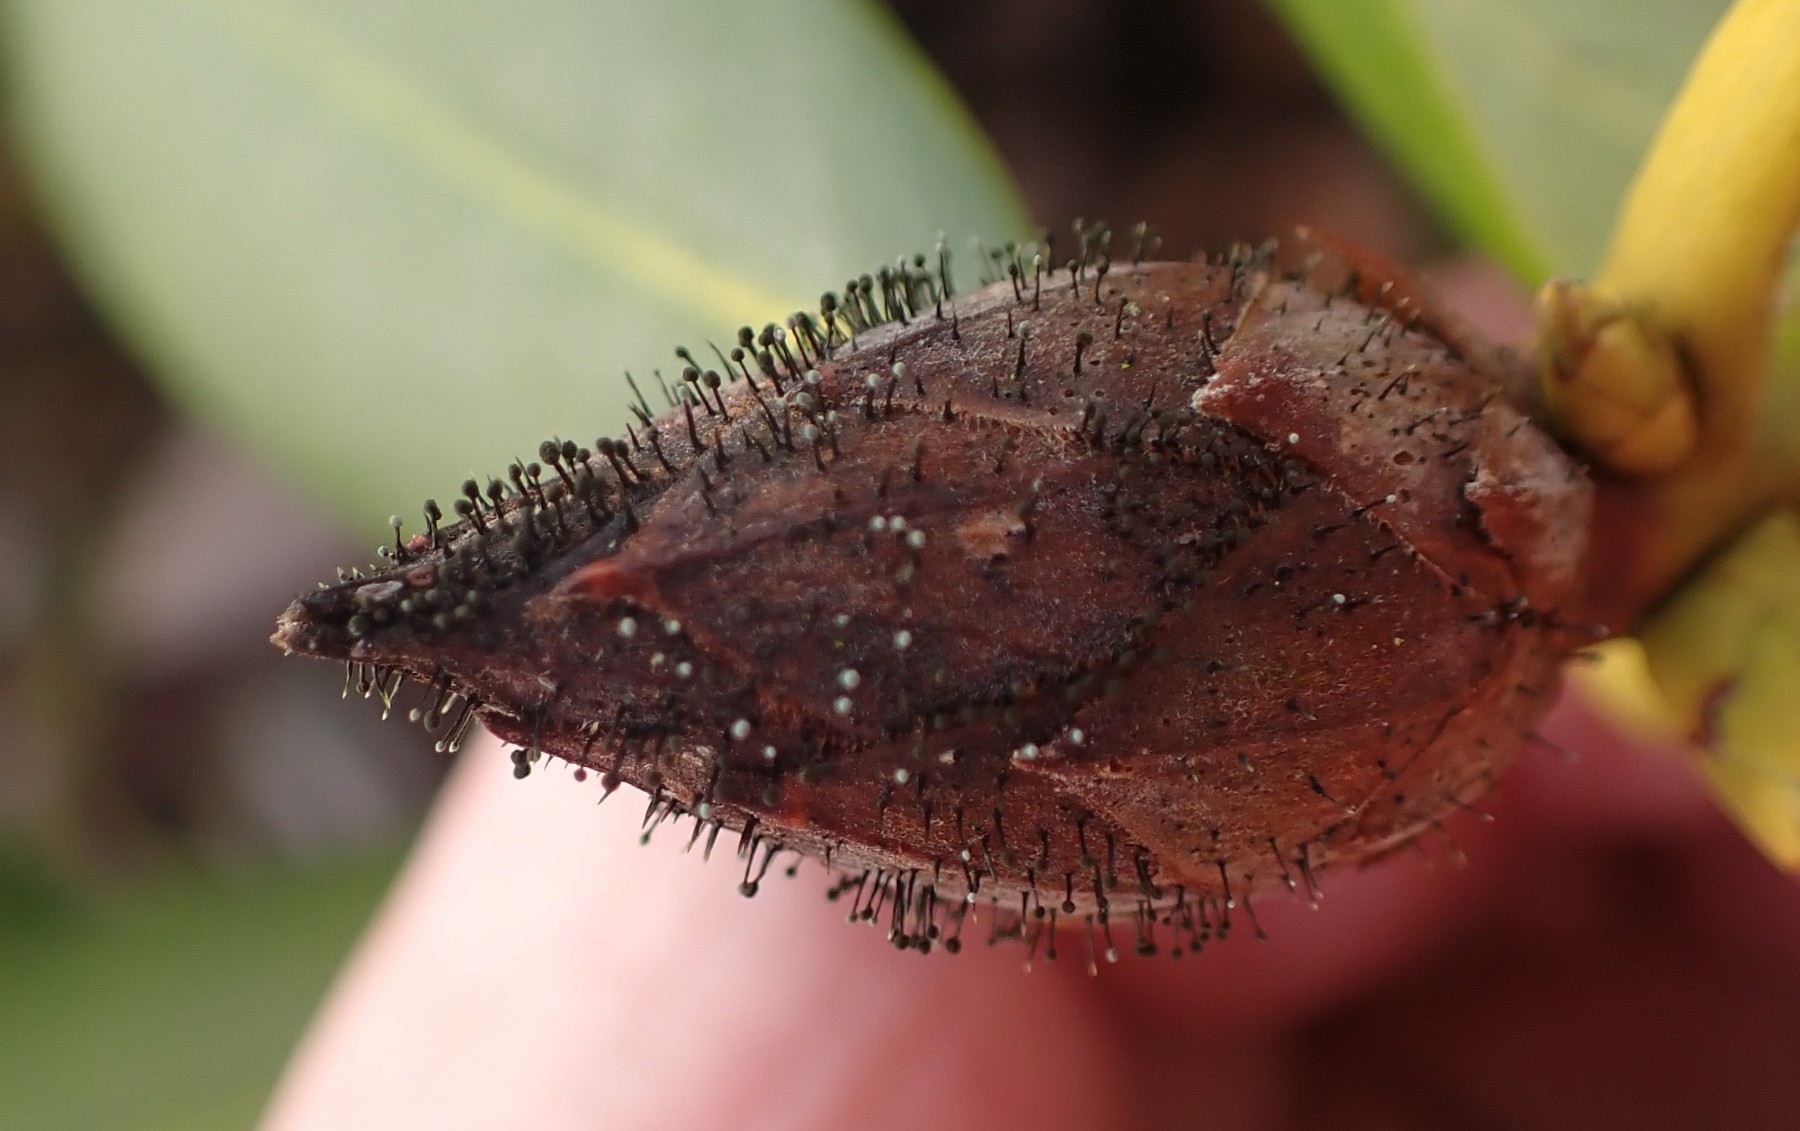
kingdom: Fungi
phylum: Ascomycota
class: Dothideomycetes
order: Pleosporales
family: Melanommataceae
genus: Seifertia
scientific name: Seifertia azaleae
